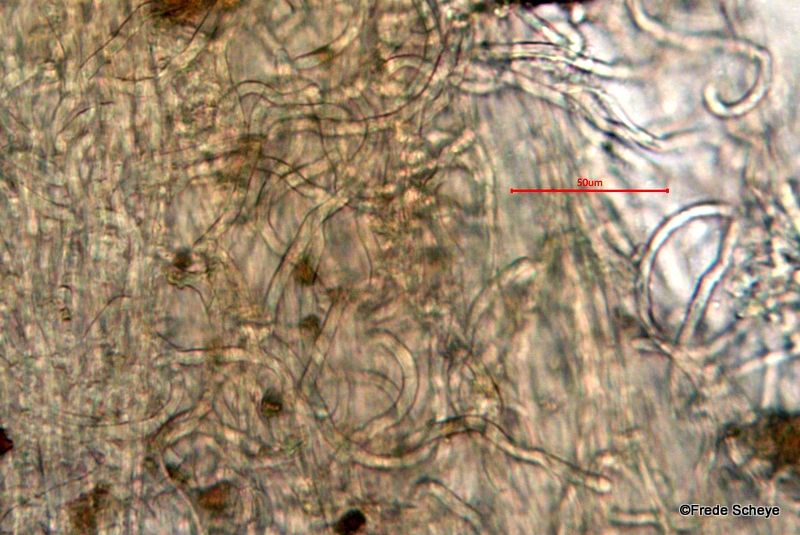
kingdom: Fungi
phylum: Ascomycota
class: Pezizomycetes
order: Pezizales
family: Sarcoscyphaceae
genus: Sarcoscypha
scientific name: Sarcoscypha austriaca
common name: krølhåret pragtbæger
